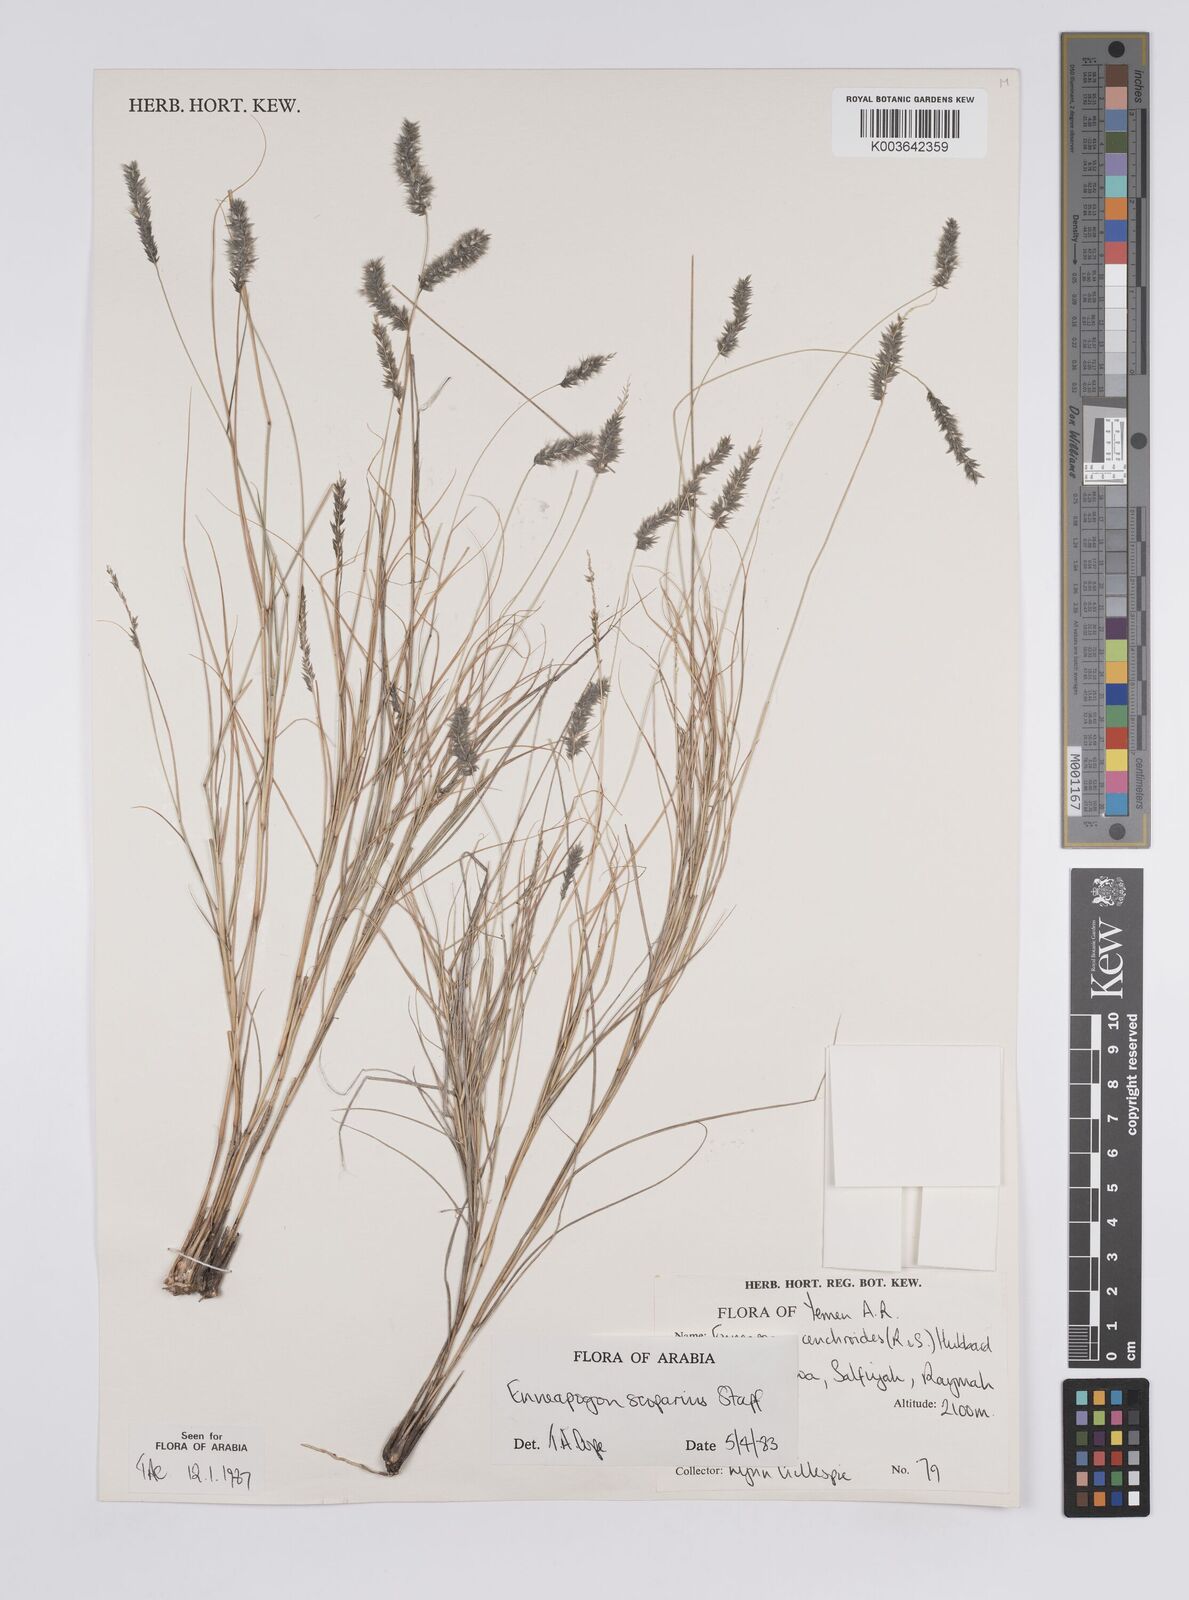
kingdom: Plantae
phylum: Tracheophyta
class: Liliopsida
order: Poales
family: Poaceae
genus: Enneapogon
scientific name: Enneapogon scoparius
